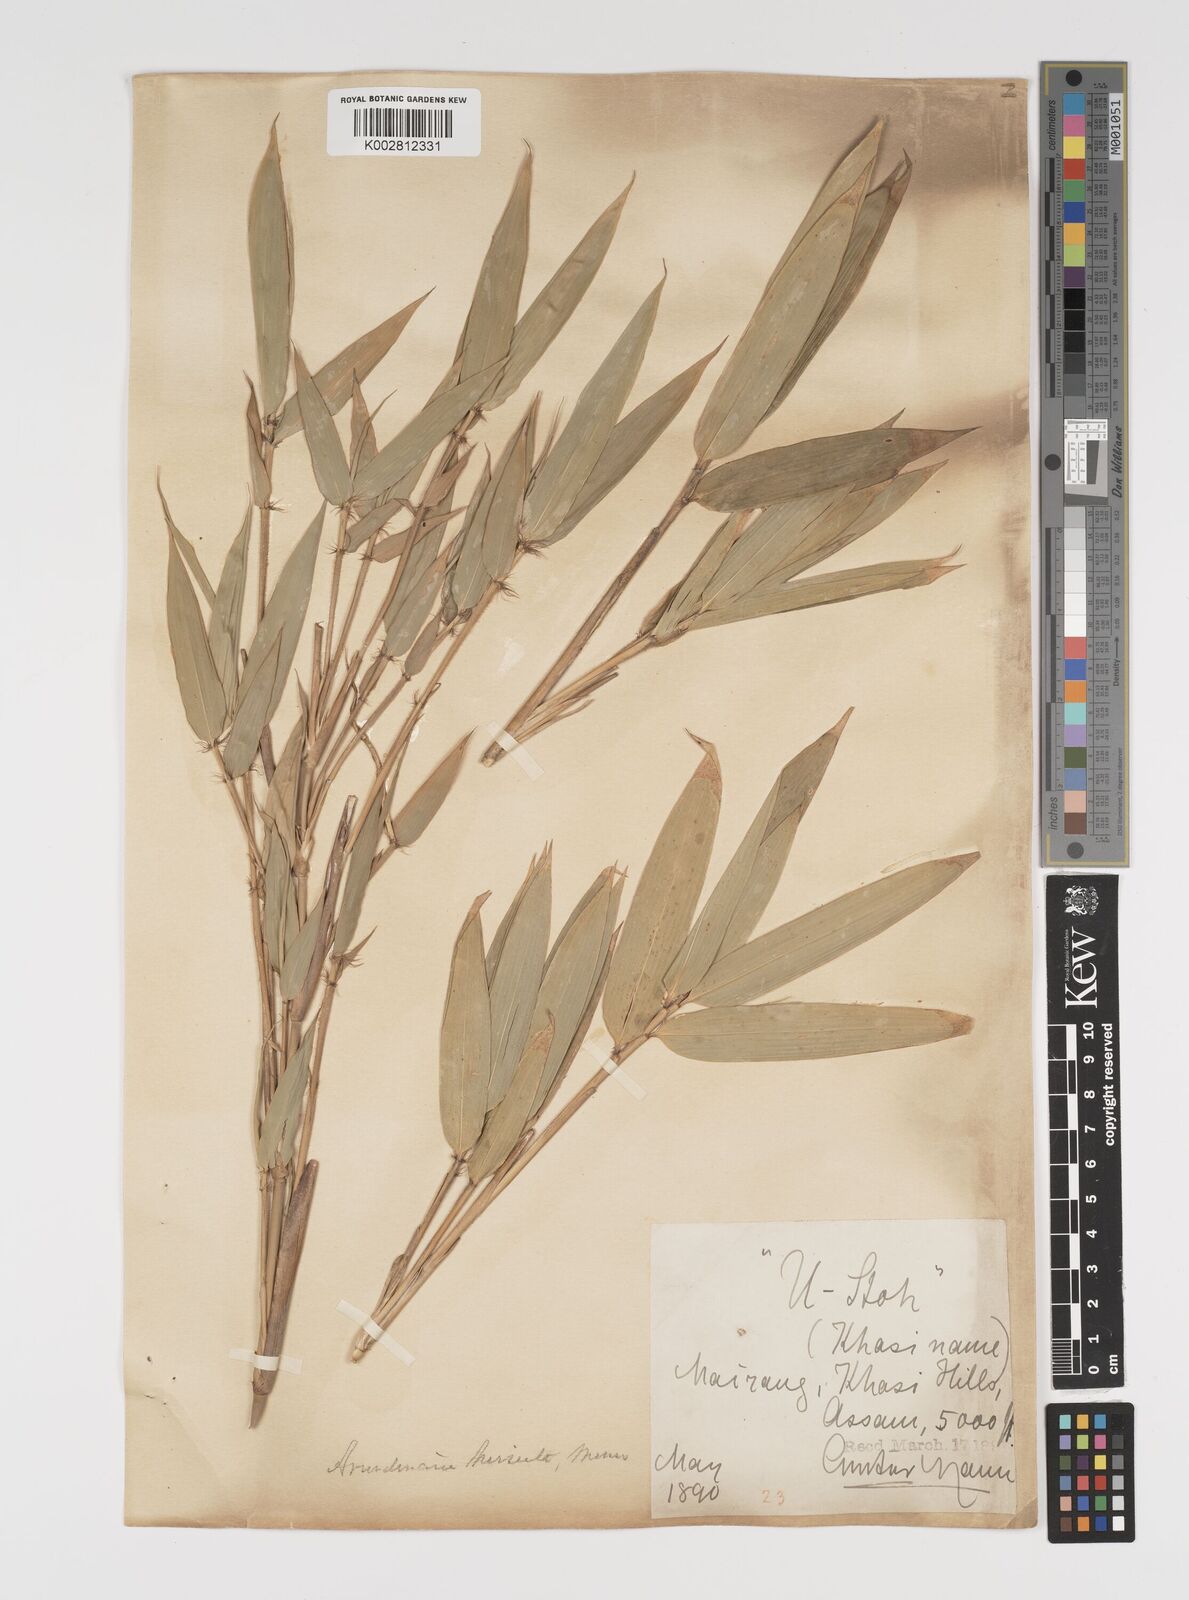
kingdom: Plantae
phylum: Tracheophyta
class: Liliopsida
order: Poales
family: Poaceae
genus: Yushania
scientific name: Yushania hirsuta
